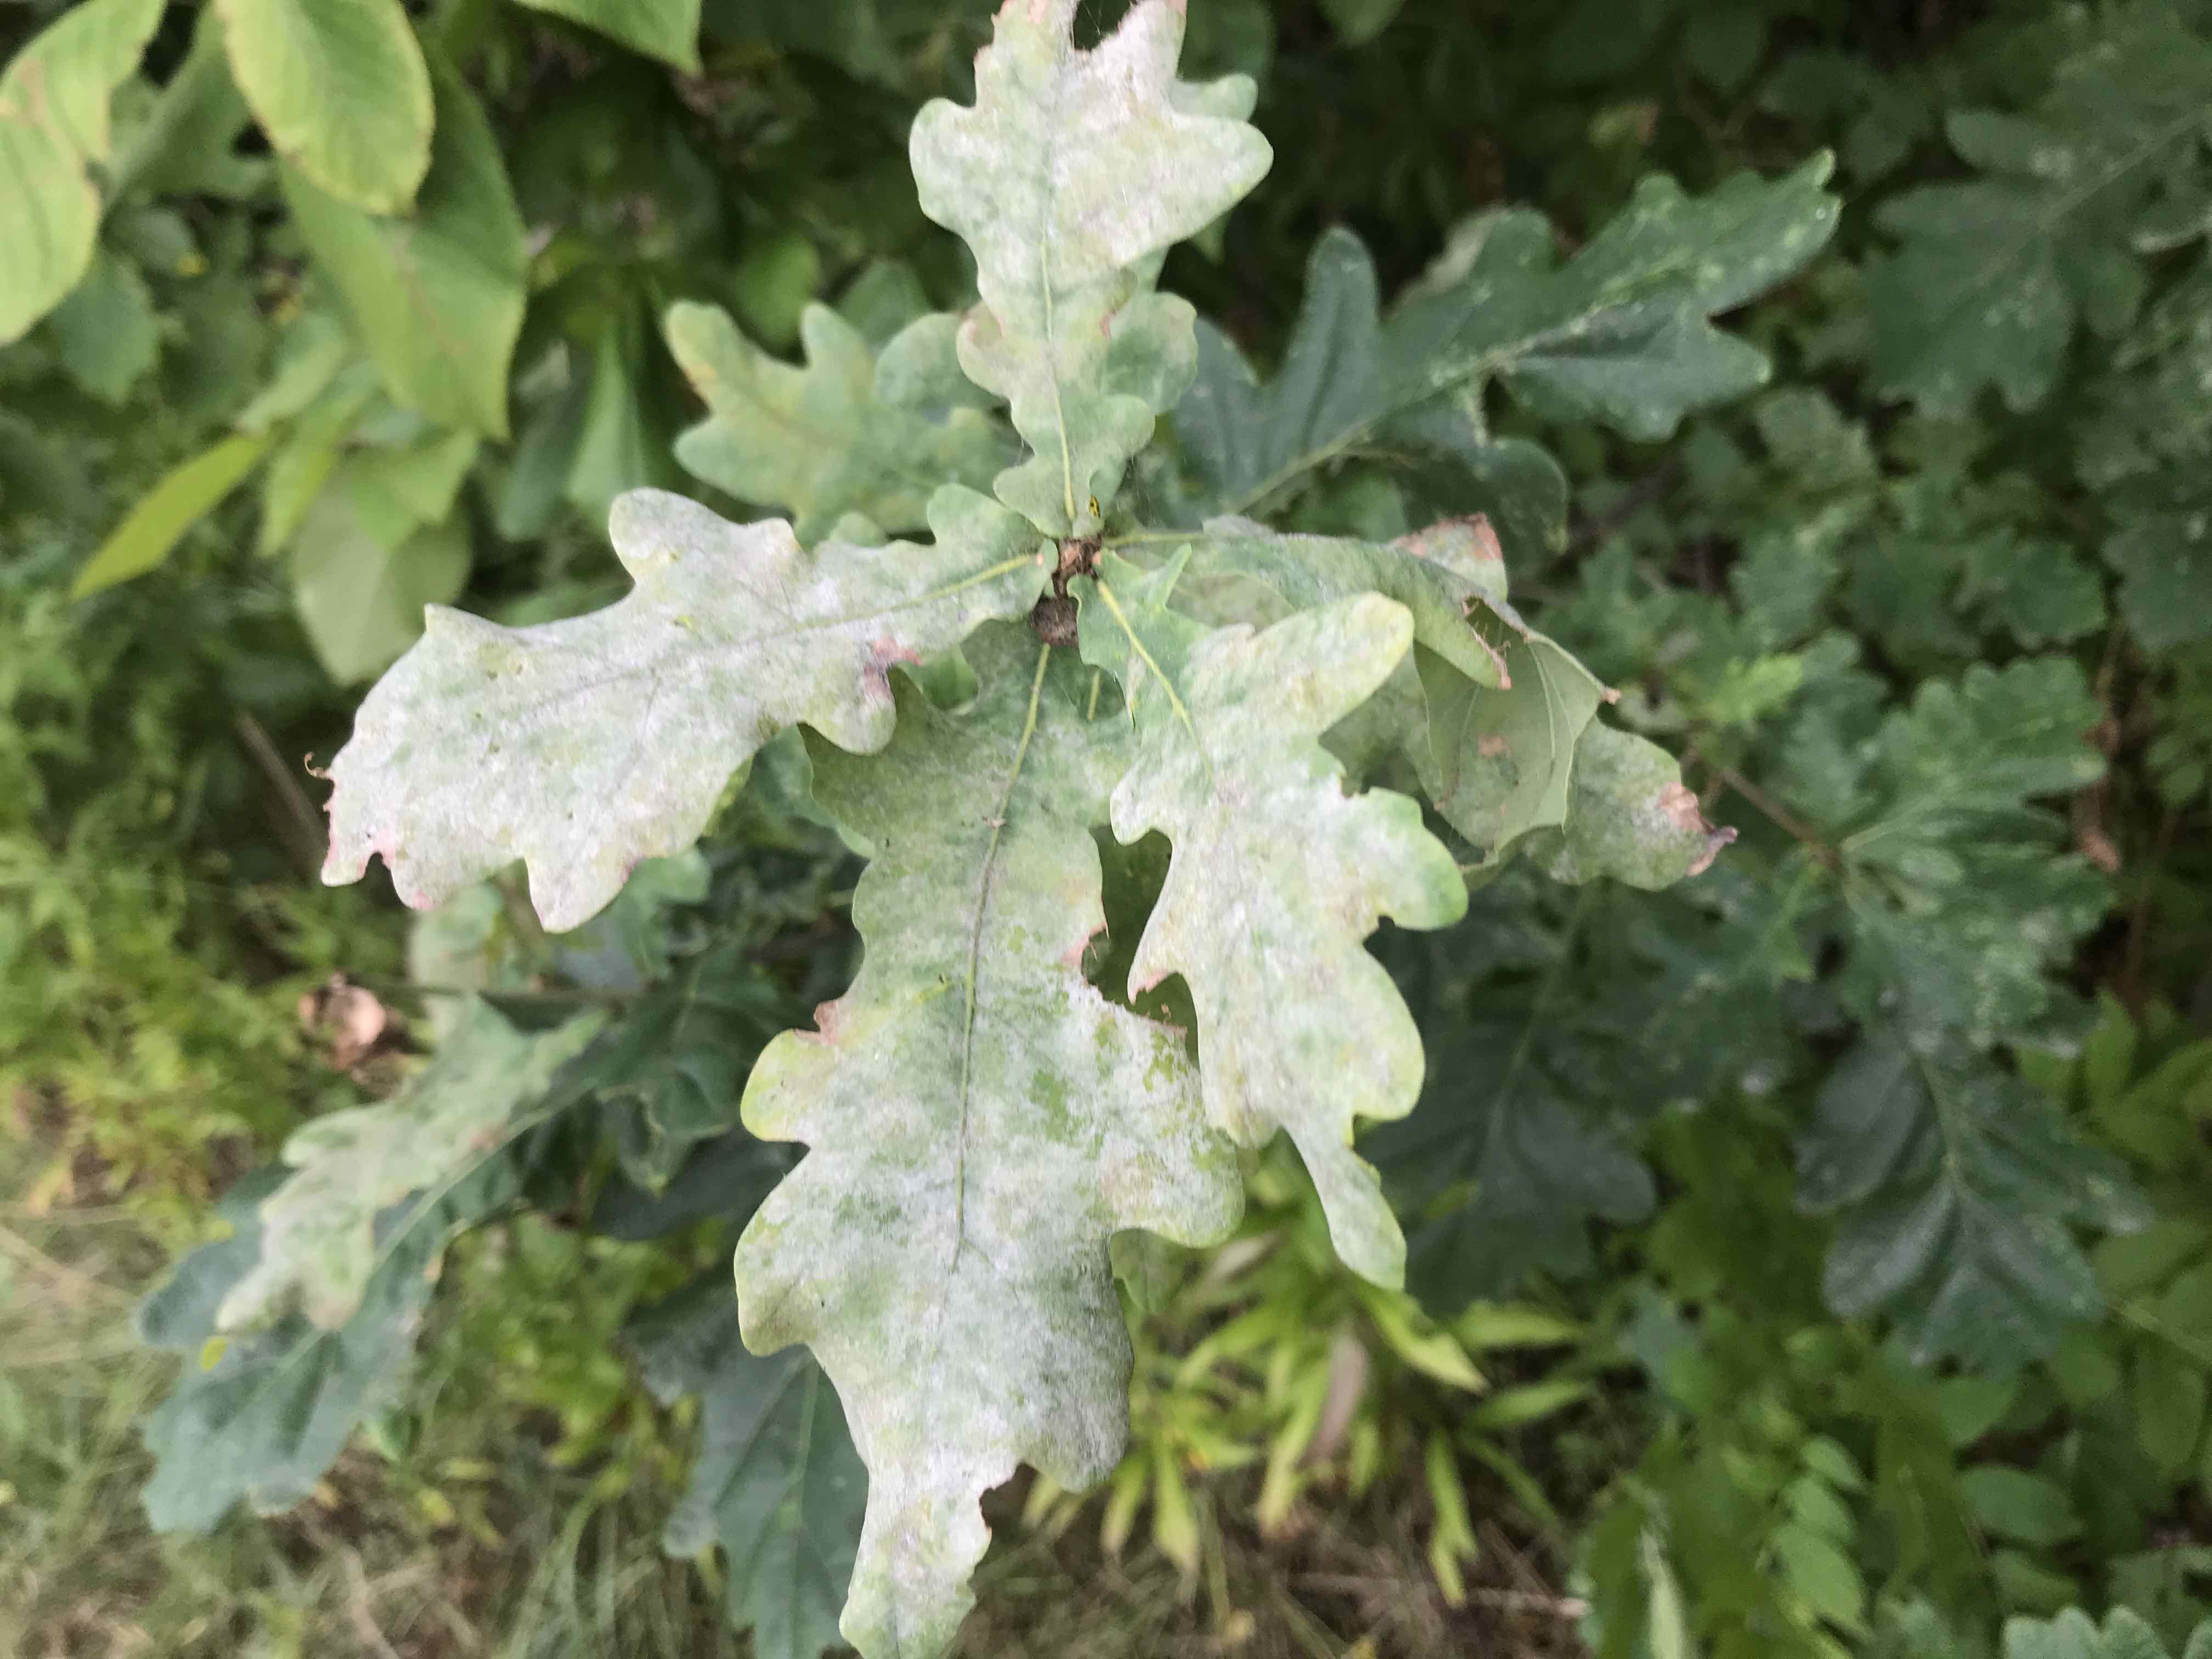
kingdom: Fungi
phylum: Ascomycota
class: Leotiomycetes
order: Helotiales
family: Erysiphaceae
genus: Erysiphe
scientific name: Erysiphe alphitoides
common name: ege-meldug
